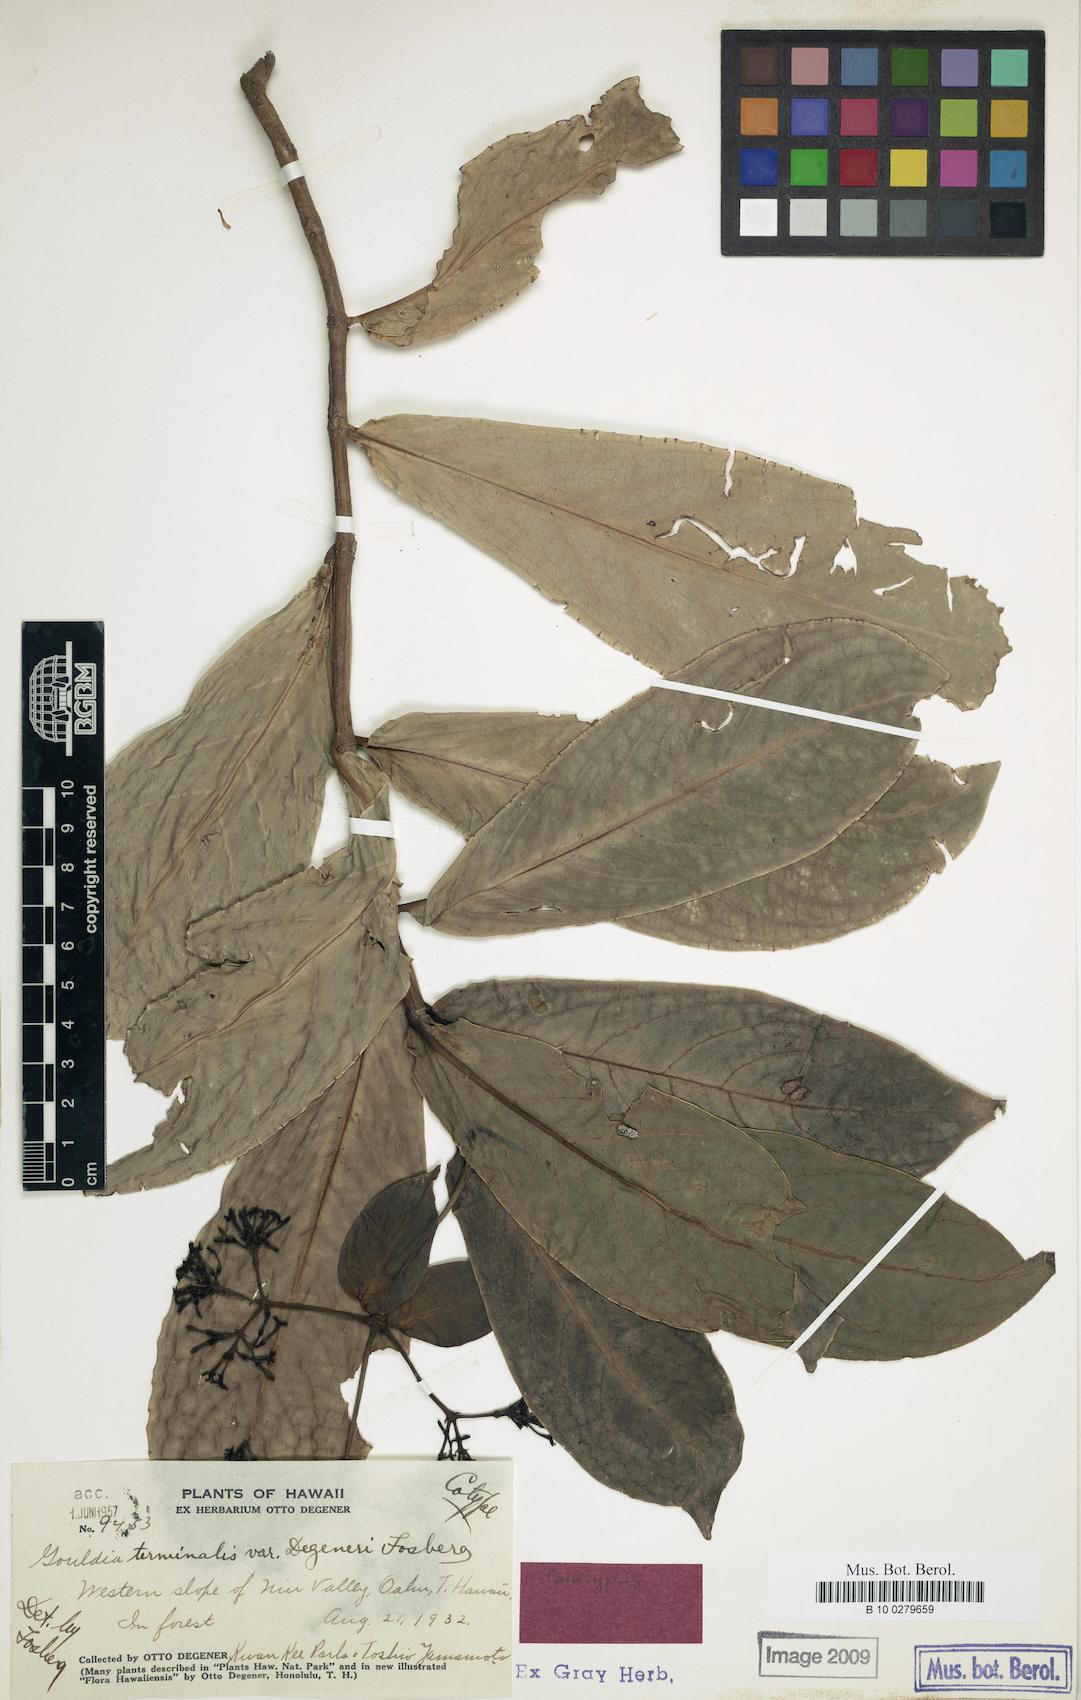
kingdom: Plantae
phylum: Tracheophyta
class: Magnoliopsida
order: Gentianales
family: Rubiaceae
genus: Kadua
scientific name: Kadua affinis
